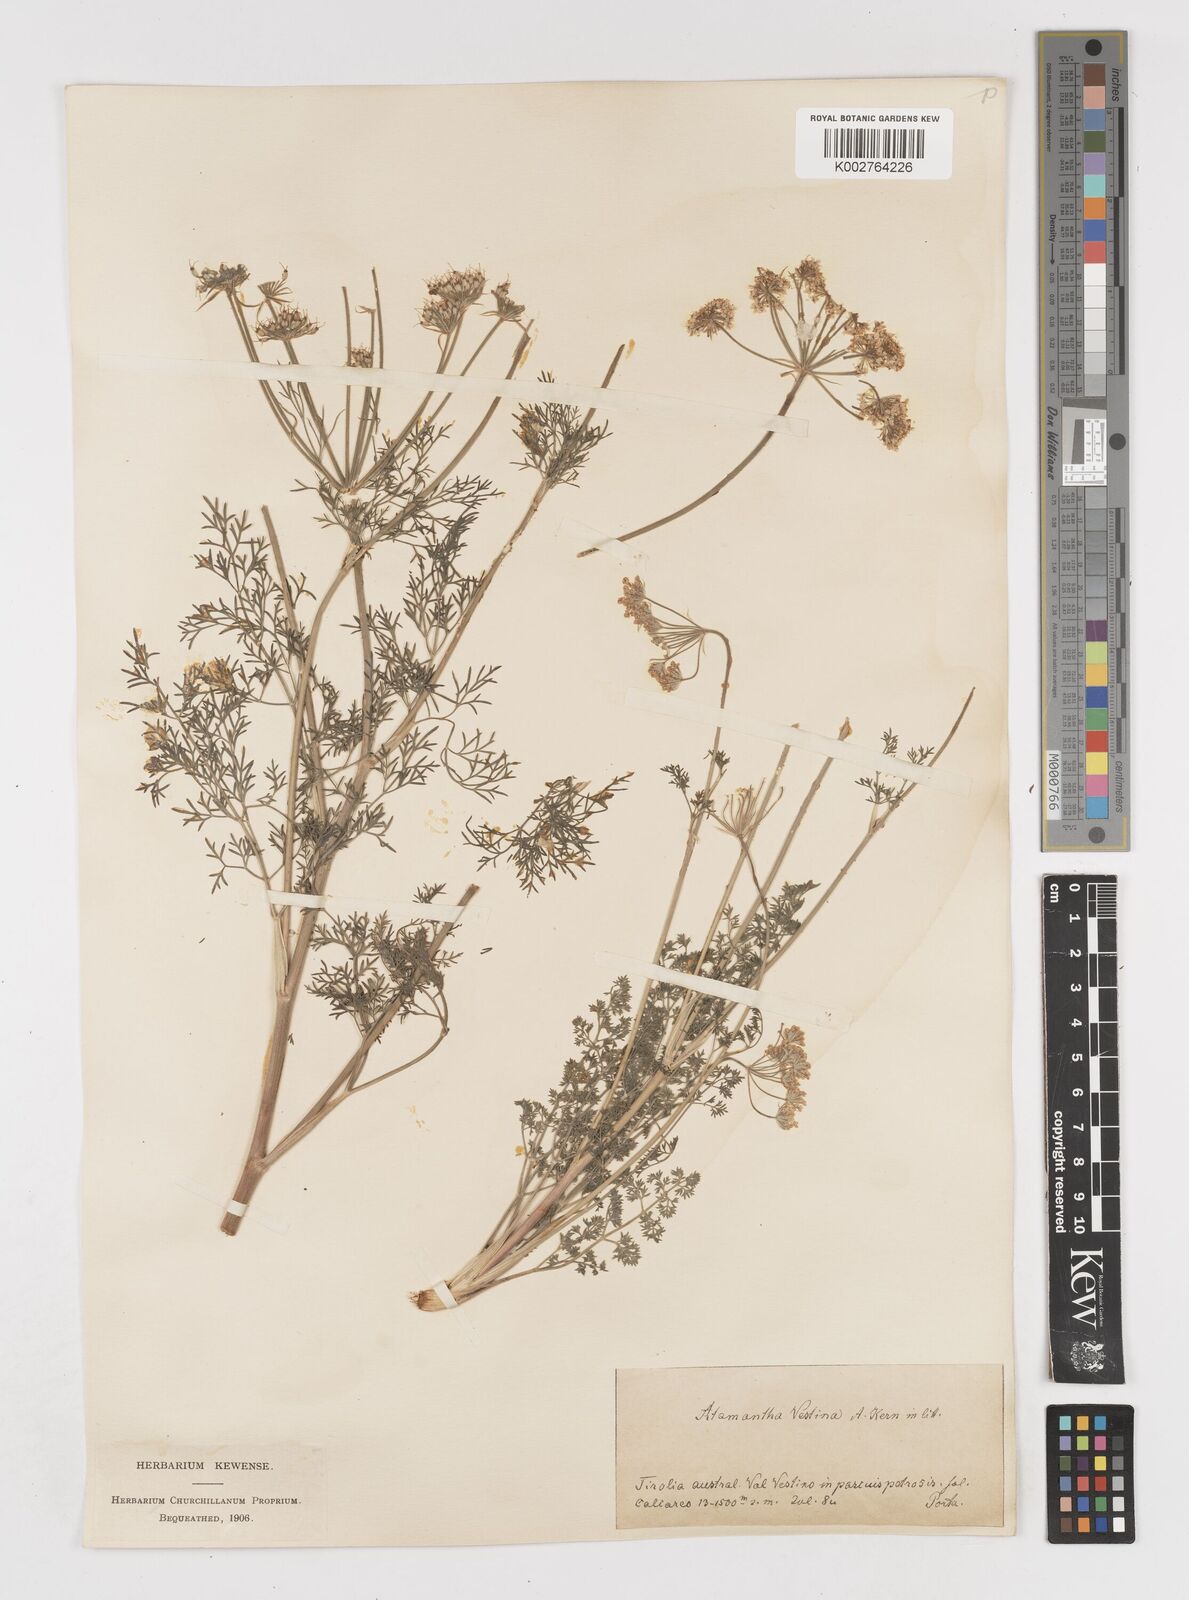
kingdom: Plantae
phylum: Tracheophyta
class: Magnoliopsida
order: Apiales
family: Apiaceae
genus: Athamanta
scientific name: Athamanta cretensis
